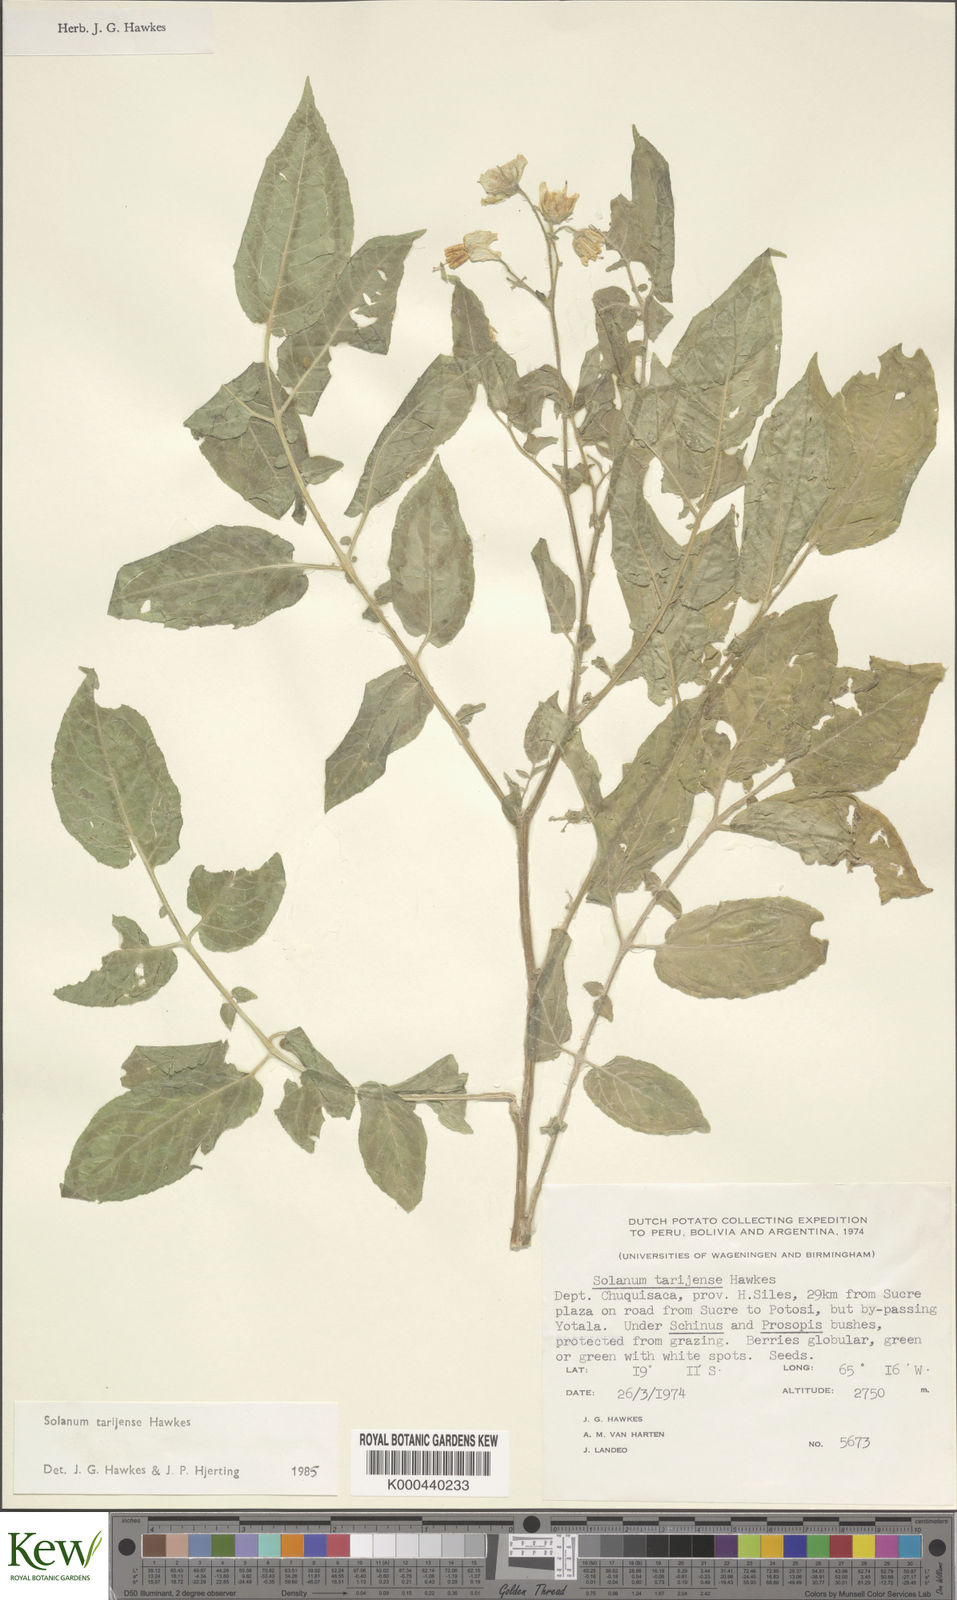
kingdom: Plantae
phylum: Tracheophyta
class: Magnoliopsida
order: Solanales
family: Solanaceae
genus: Solanum
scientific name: Solanum tarijense
